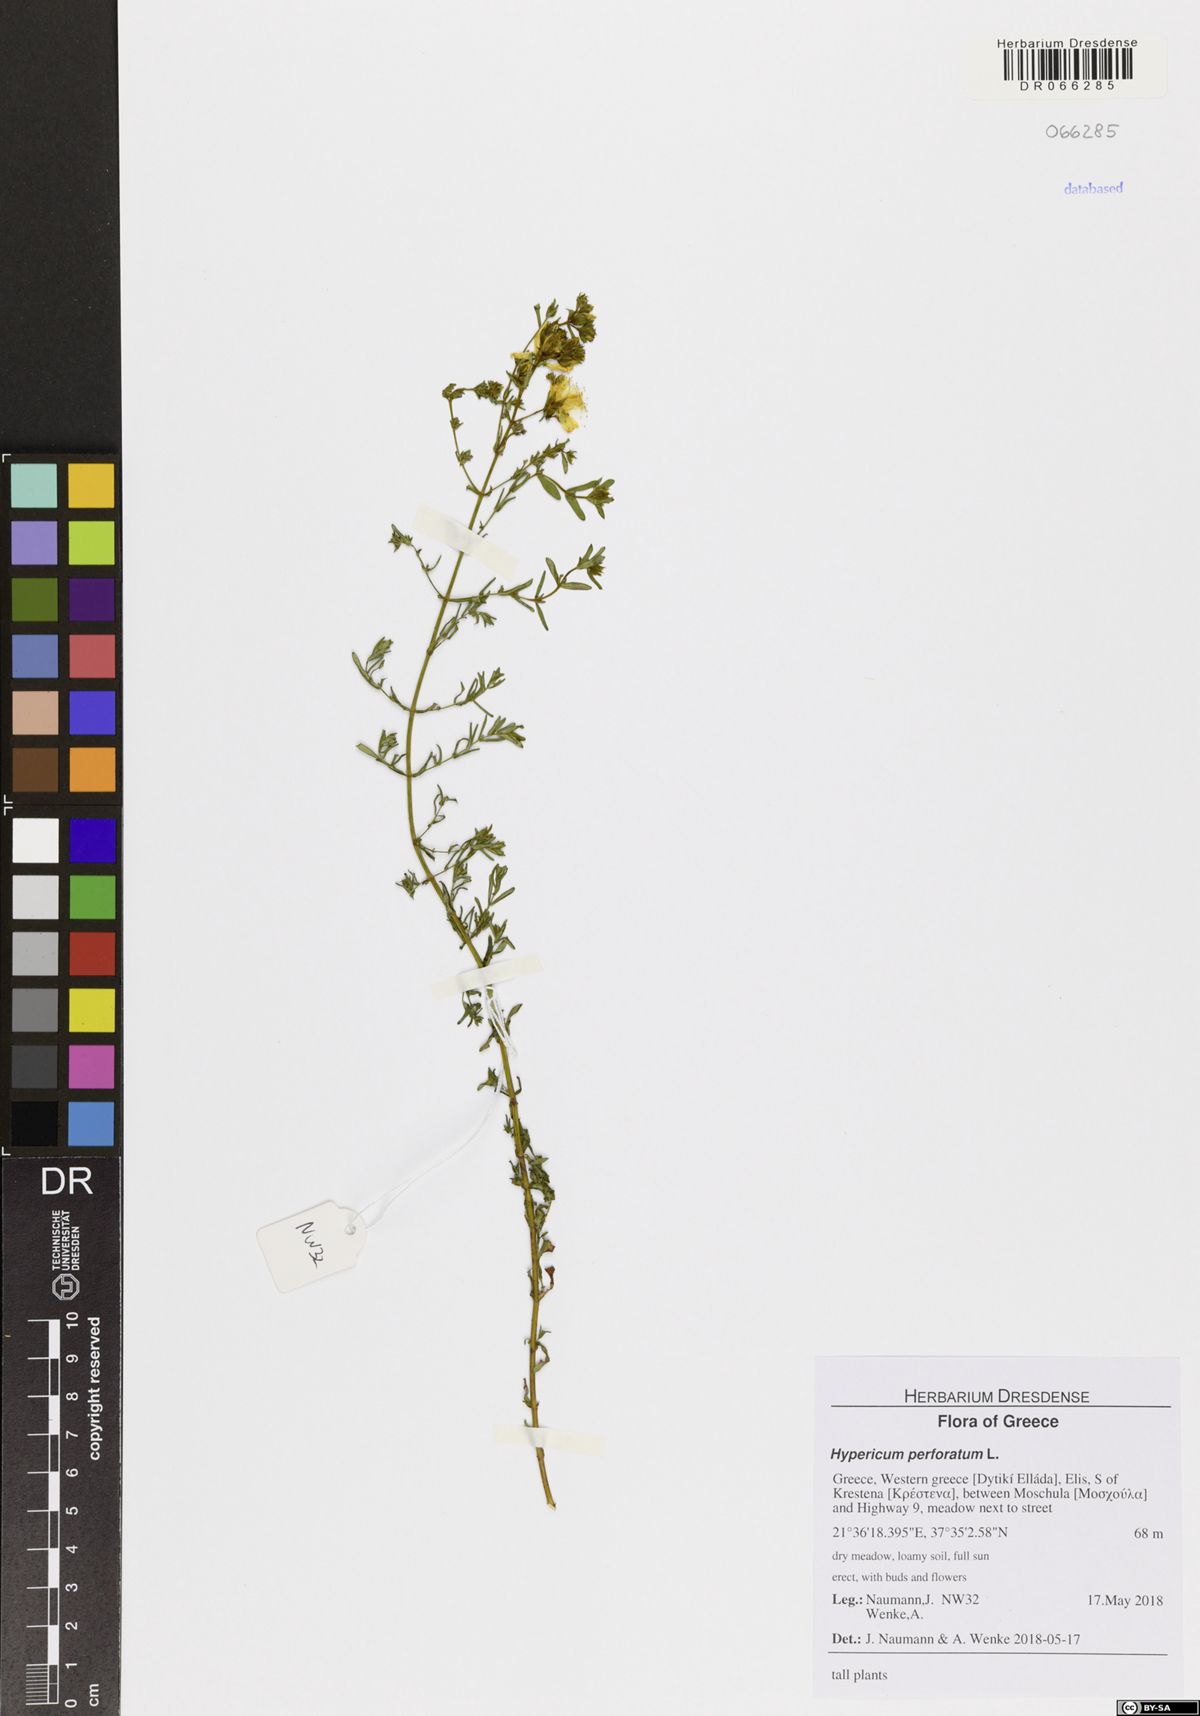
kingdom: Plantae
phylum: Tracheophyta
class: Magnoliopsida
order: Malpighiales
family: Hypericaceae
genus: Hypericum
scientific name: Hypericum perforatum
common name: Common st. johnswort
